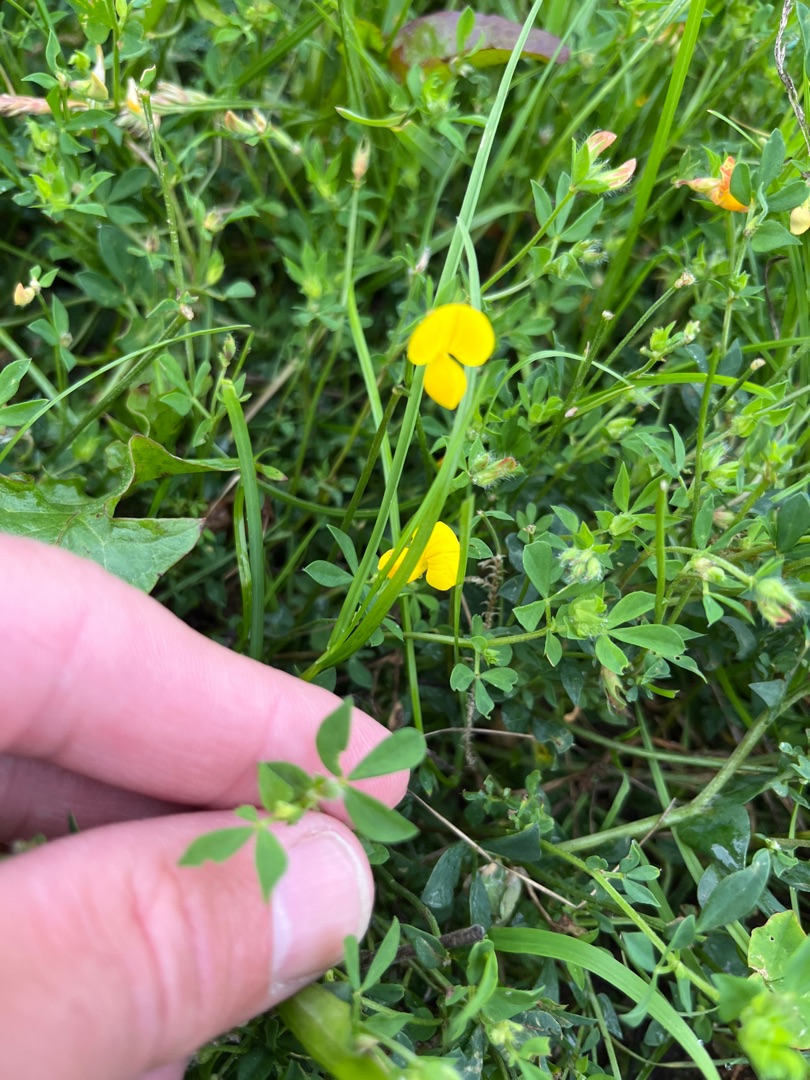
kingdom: Plantae
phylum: Tracheophyta
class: Magnoliopsida
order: Fabales
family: Fabaceae
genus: Lotus
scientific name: Lotus corniculatus
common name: Almindelig kællingetand
